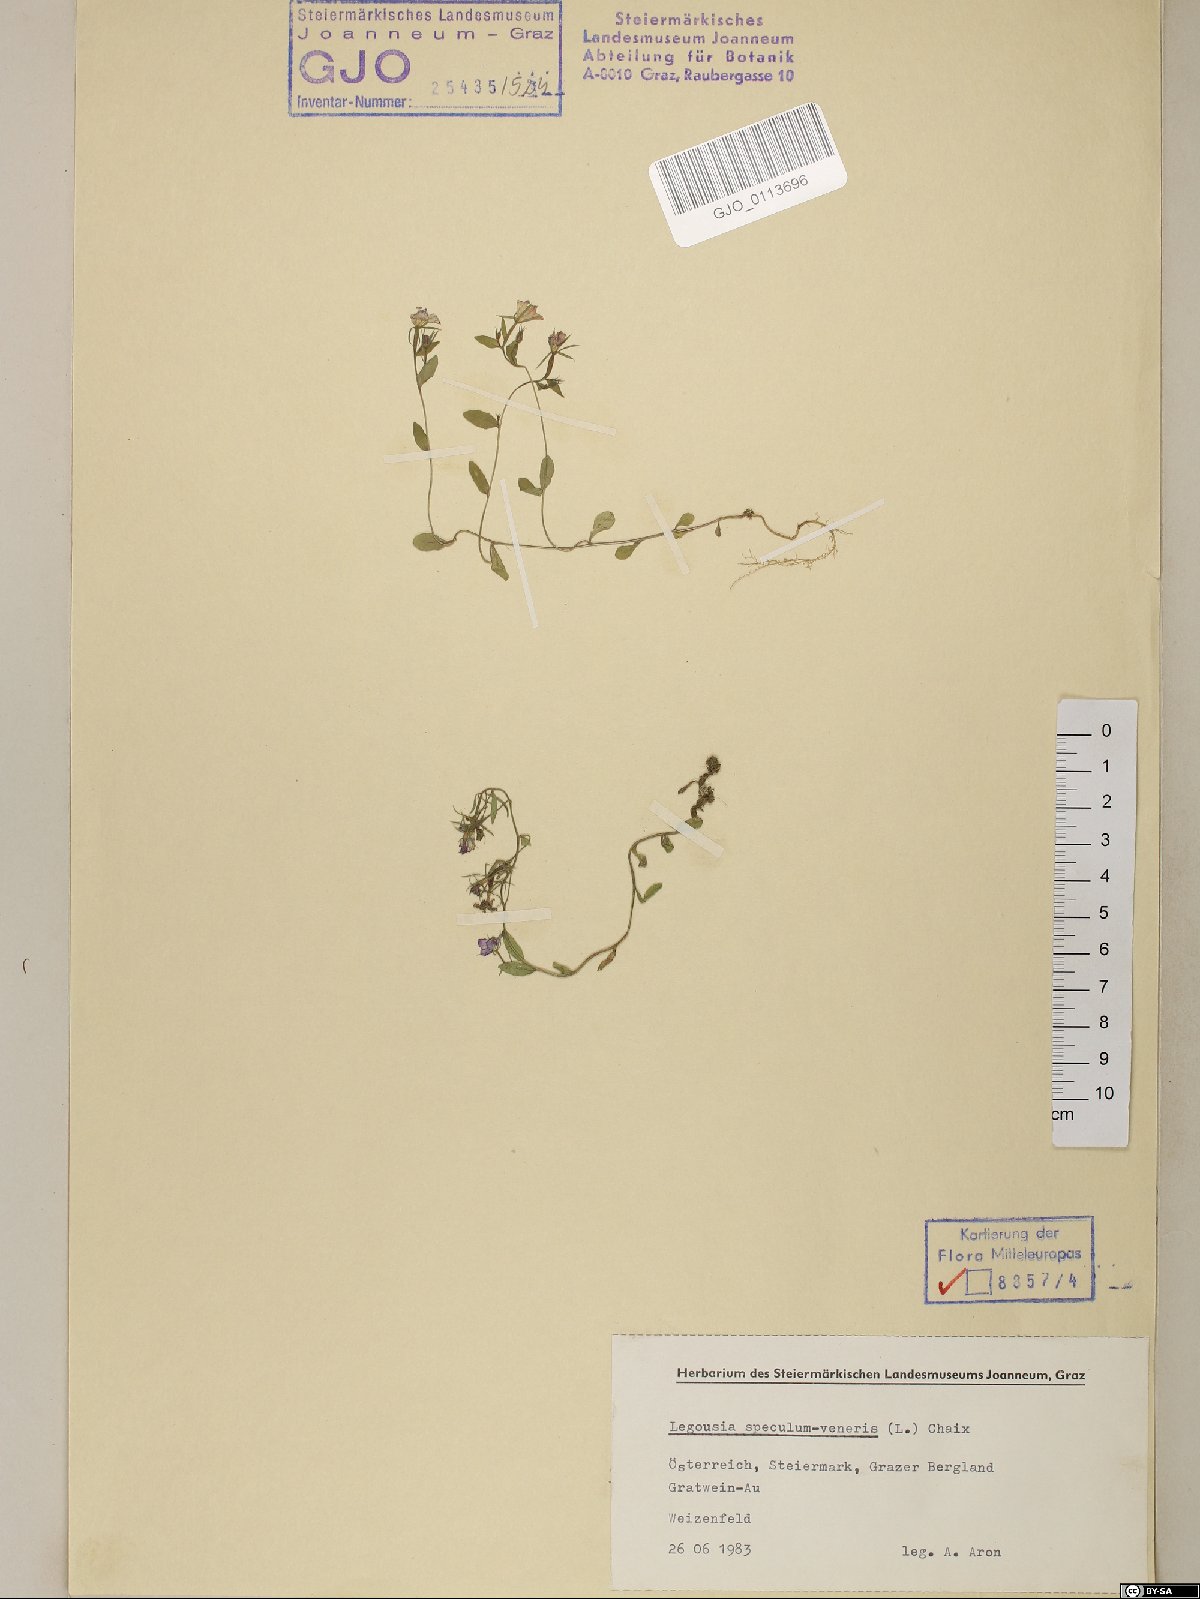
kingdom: Plantae
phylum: Tracheophyta
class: Magnoliopsida
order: Asterales
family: Campanulaceae
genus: Legousia
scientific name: Legousia speculum-veneris
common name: Large venus's-looking-glass
